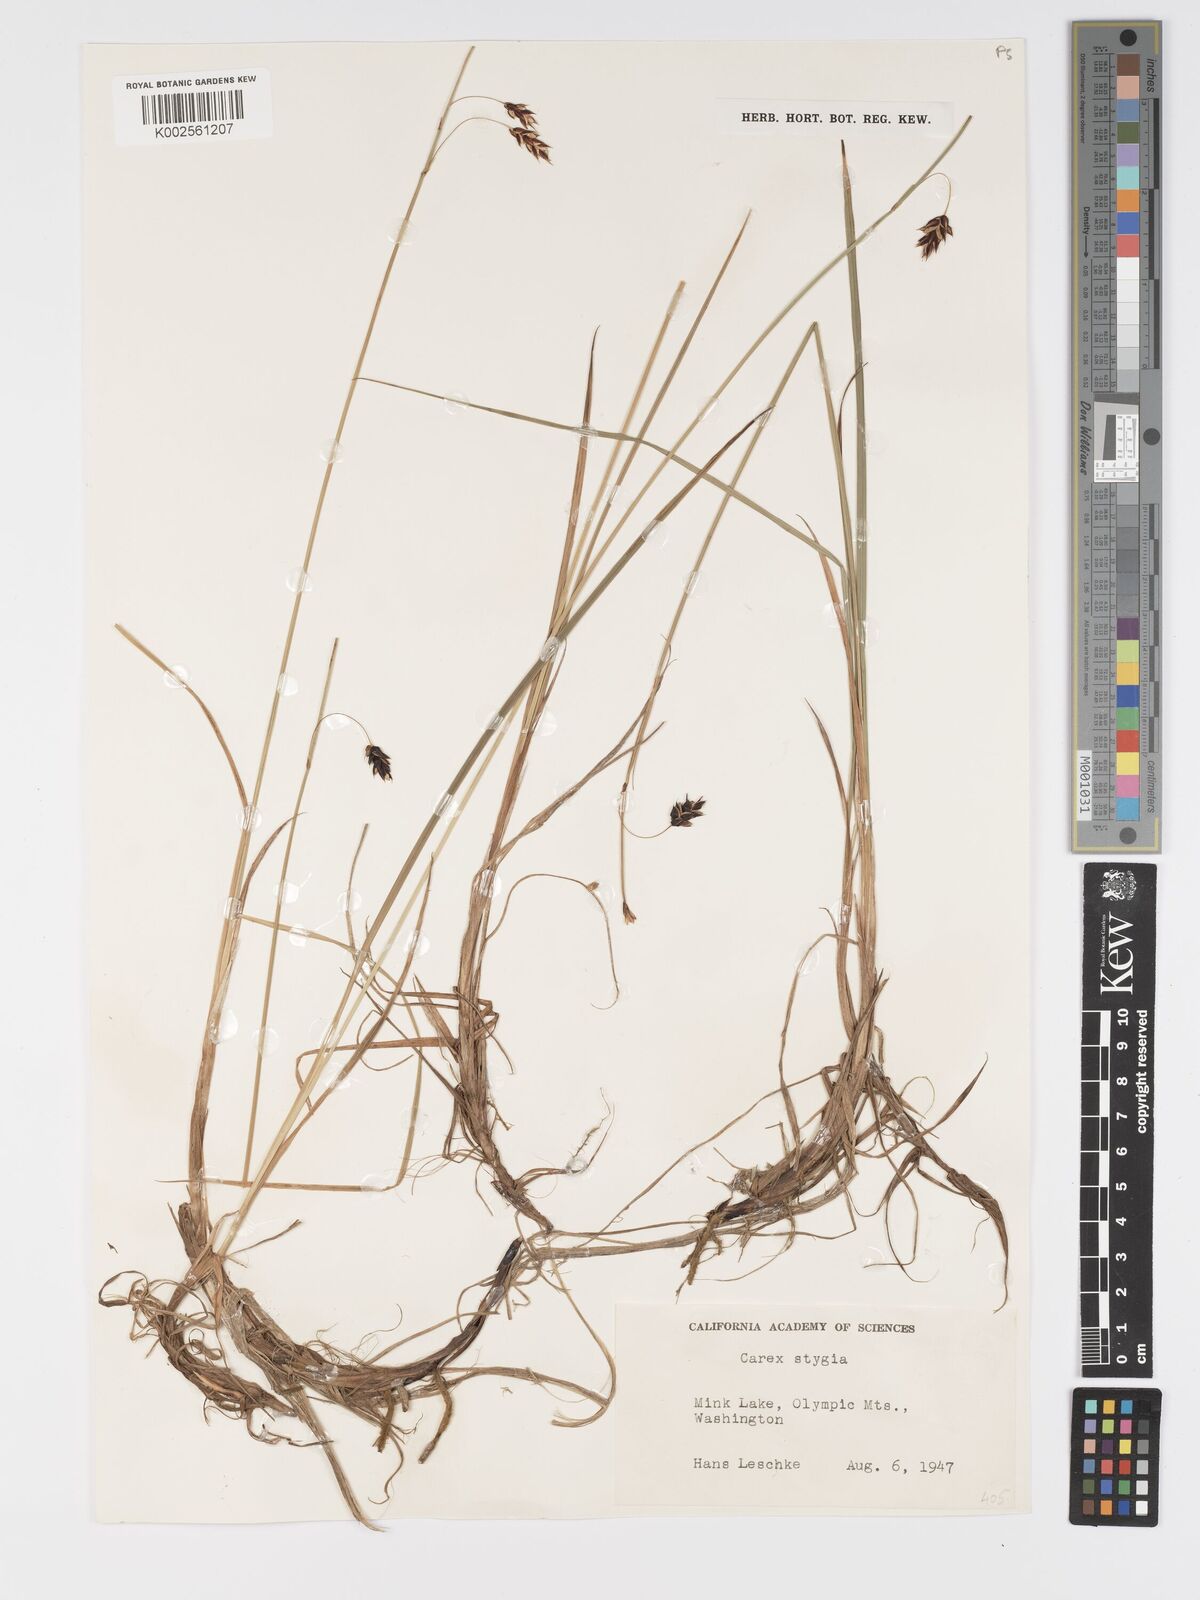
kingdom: Plantae
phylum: Tracheophyta
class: Liliopsida
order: Poales
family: Cyperaceae
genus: Carex
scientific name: Carex stygia
